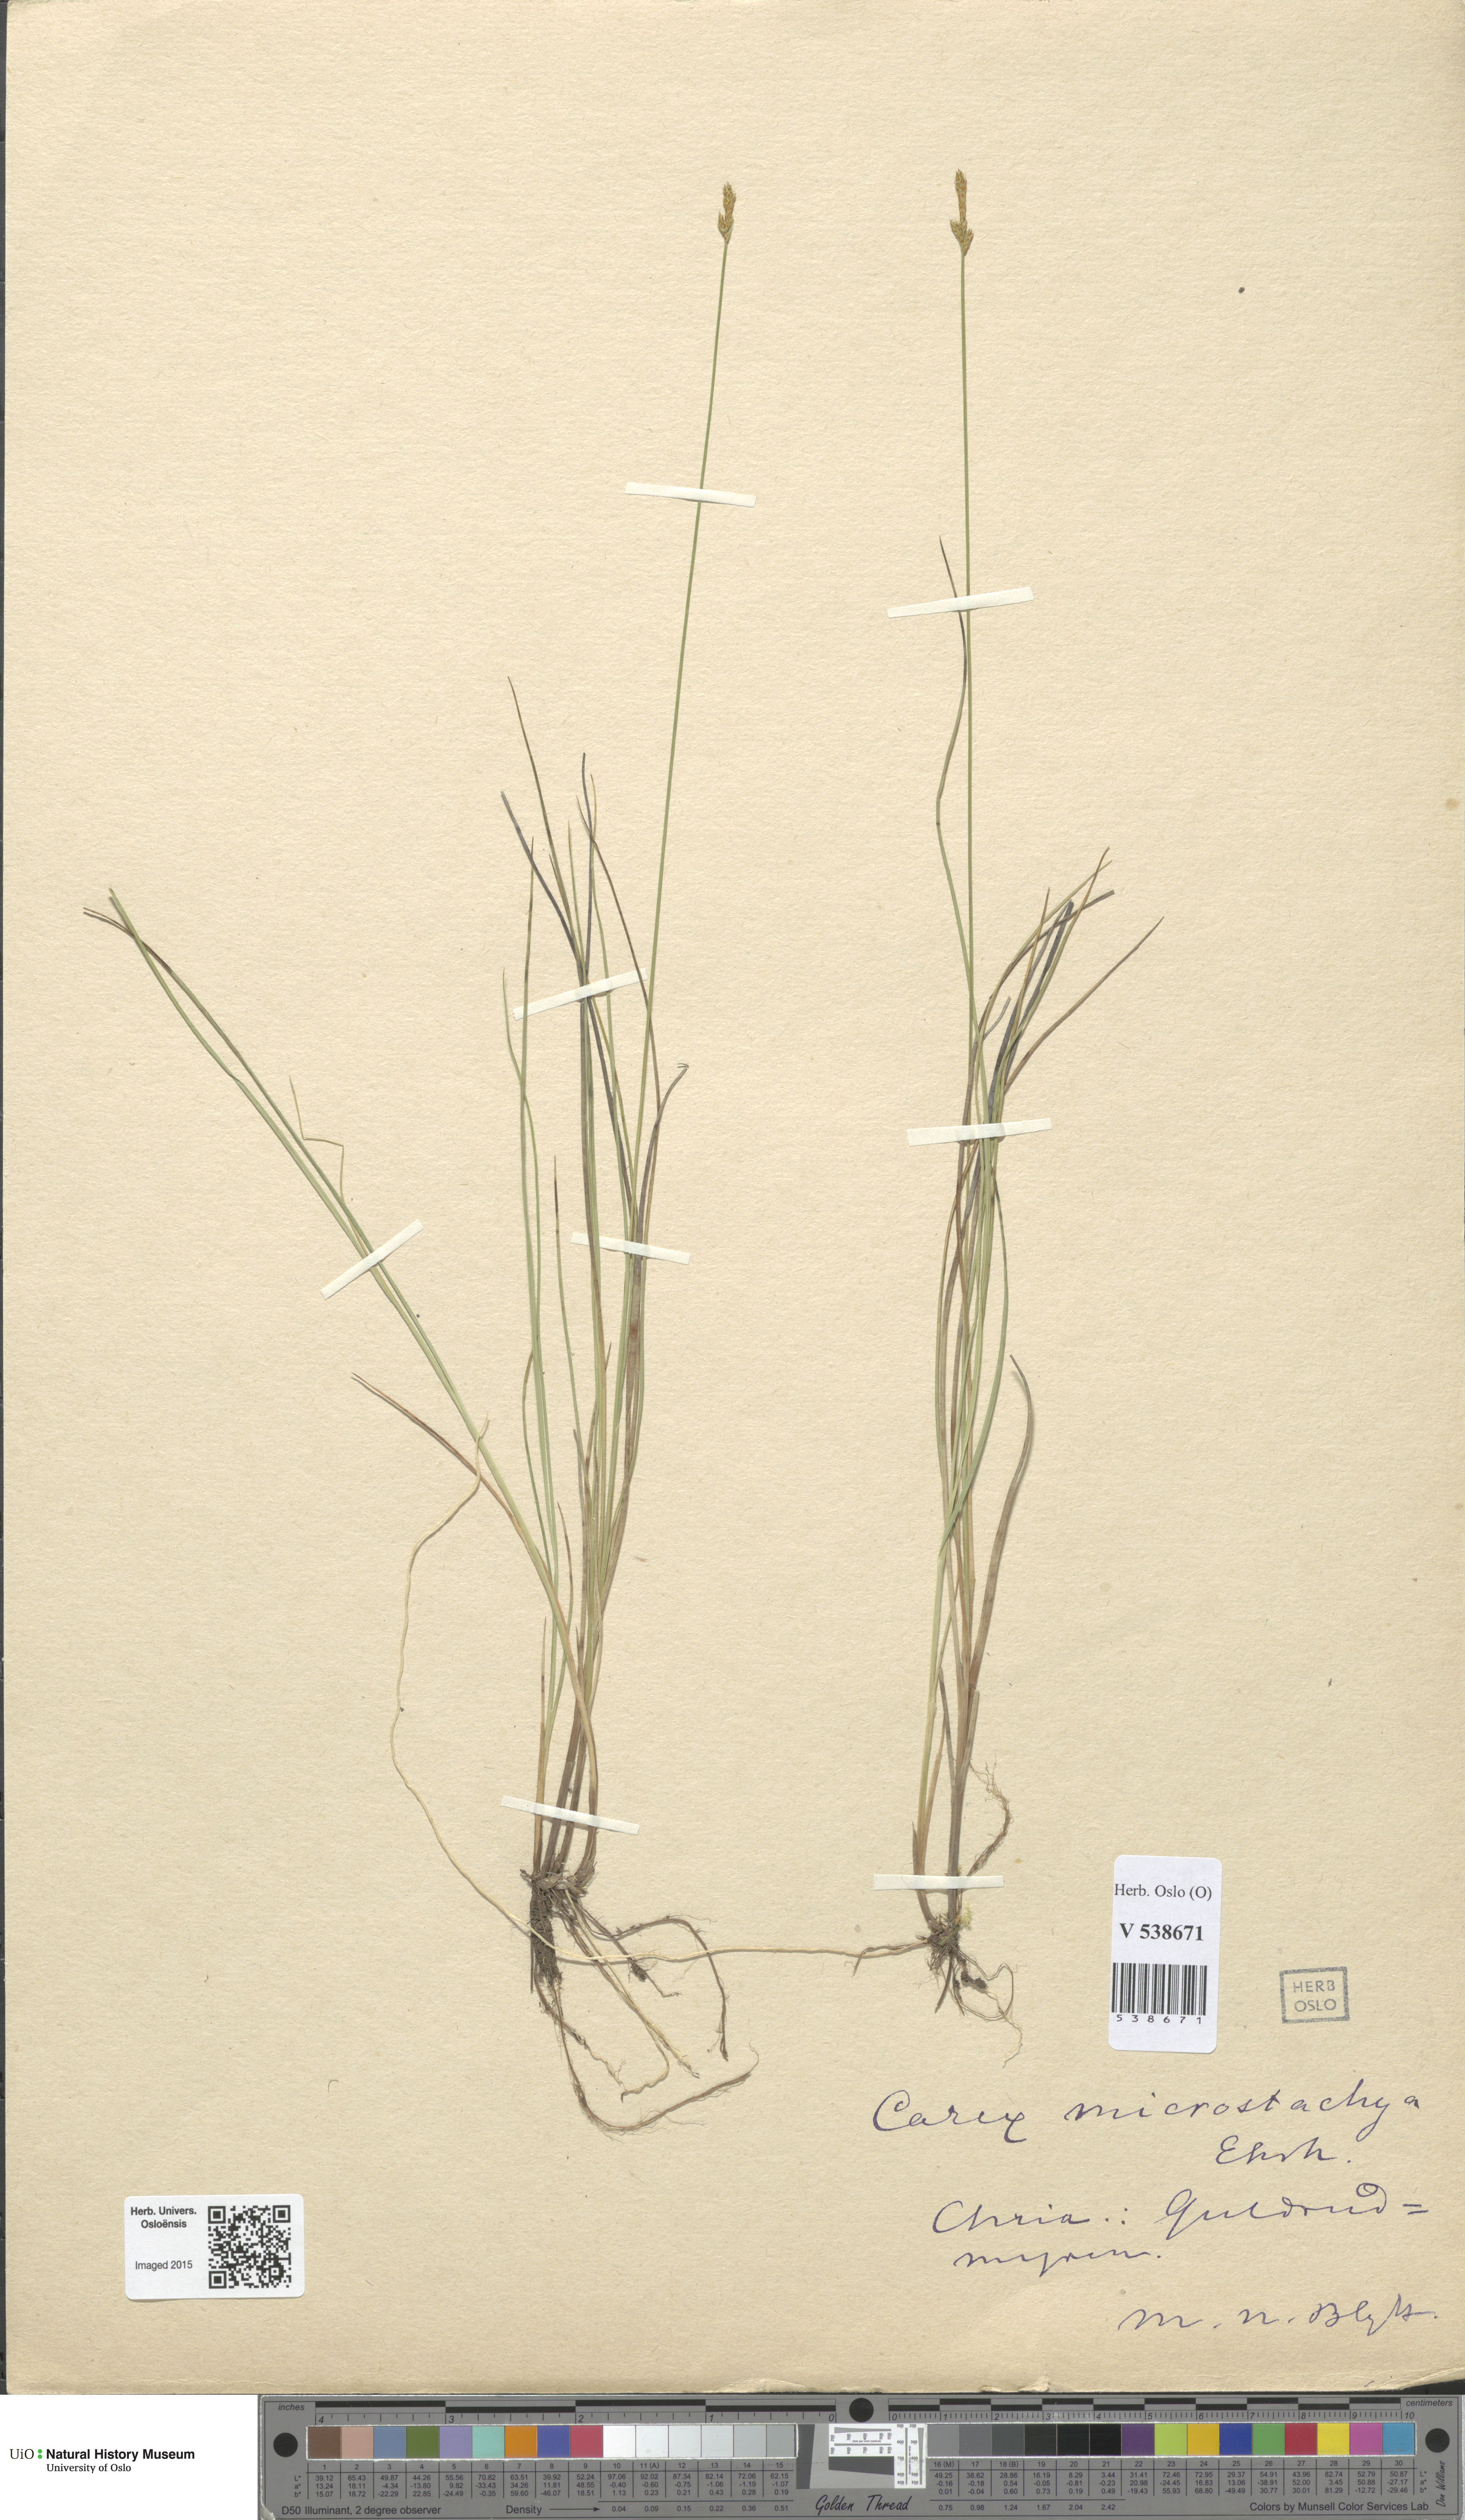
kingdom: Plantae
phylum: Tracheophyta
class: Liliopsida
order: Poales
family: Cyperaceae
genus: Carex
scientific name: Carex
